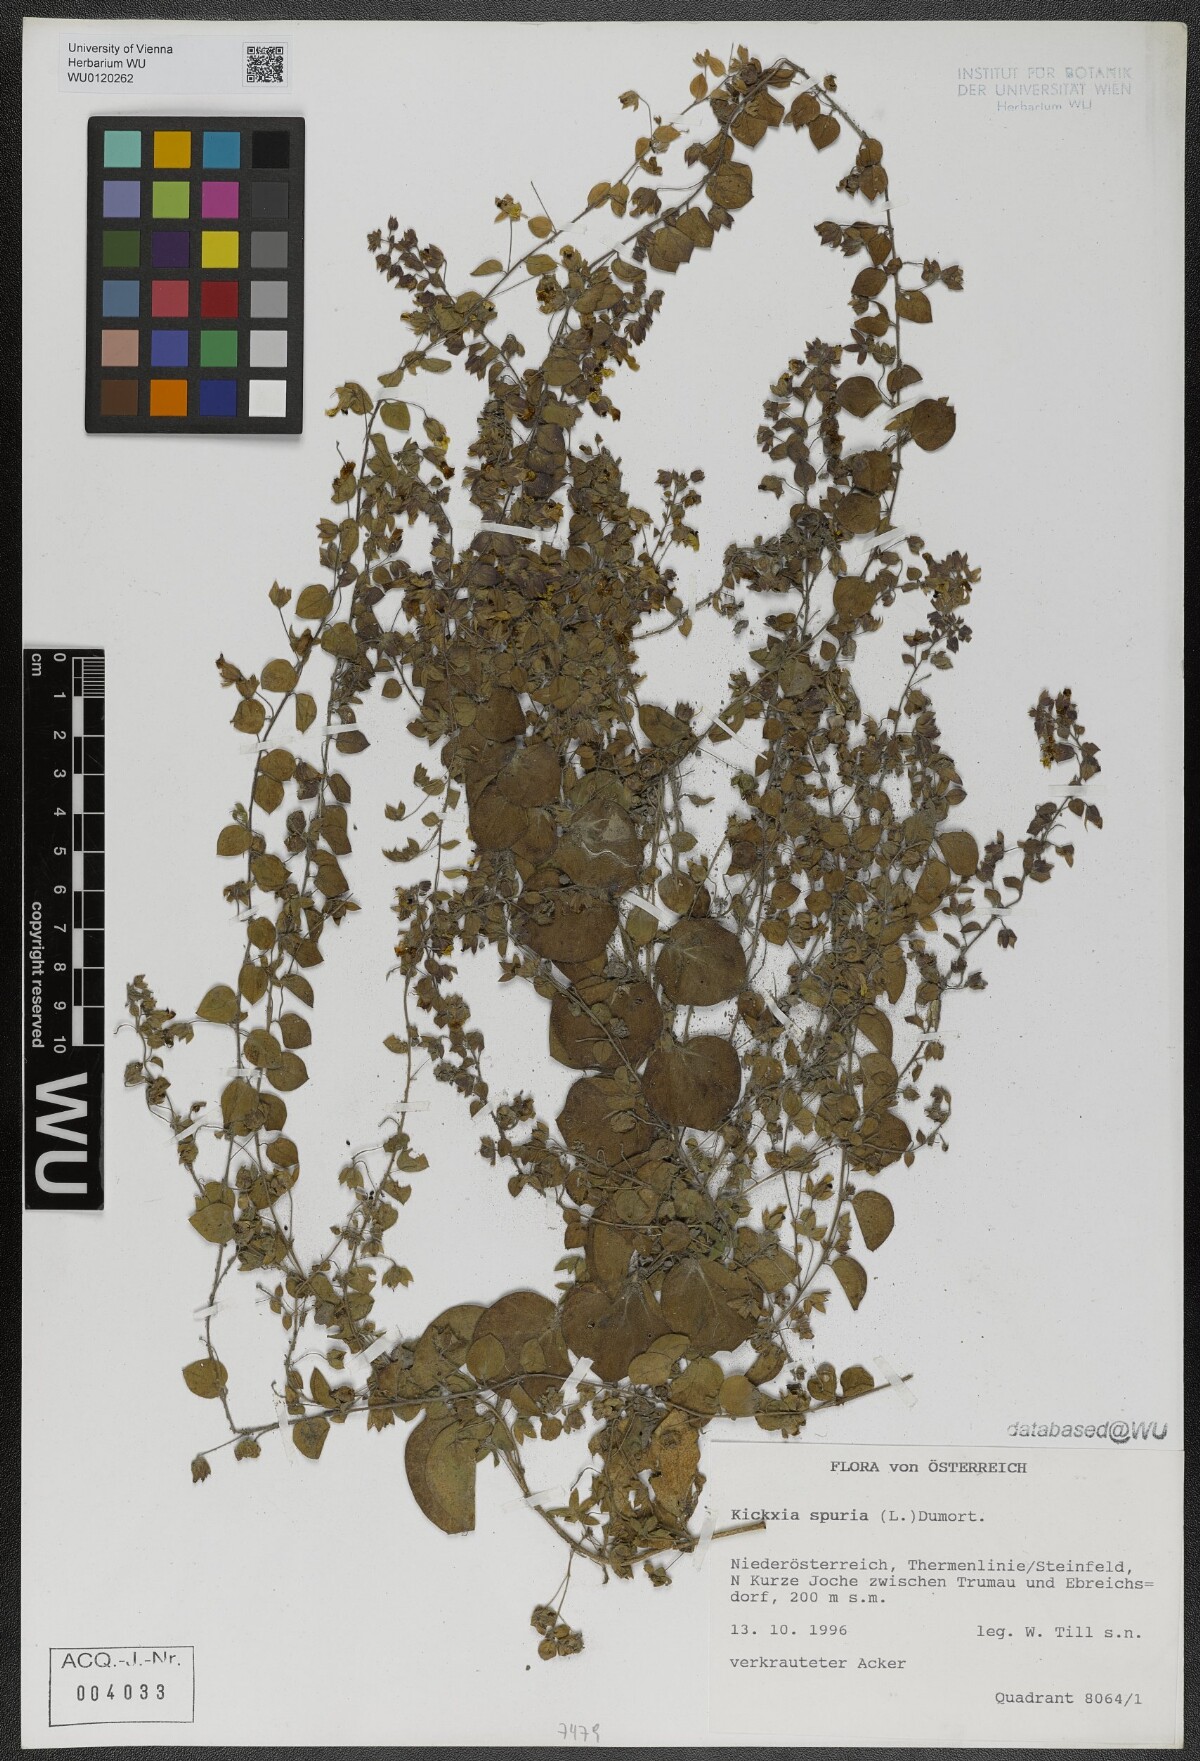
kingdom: Plantae
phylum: Tracheophyta
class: Magnoliopsida
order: Lamiales
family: Plantaginaceae
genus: Kickxia
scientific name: Kickxia spuria
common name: Round-leaved fluellen
